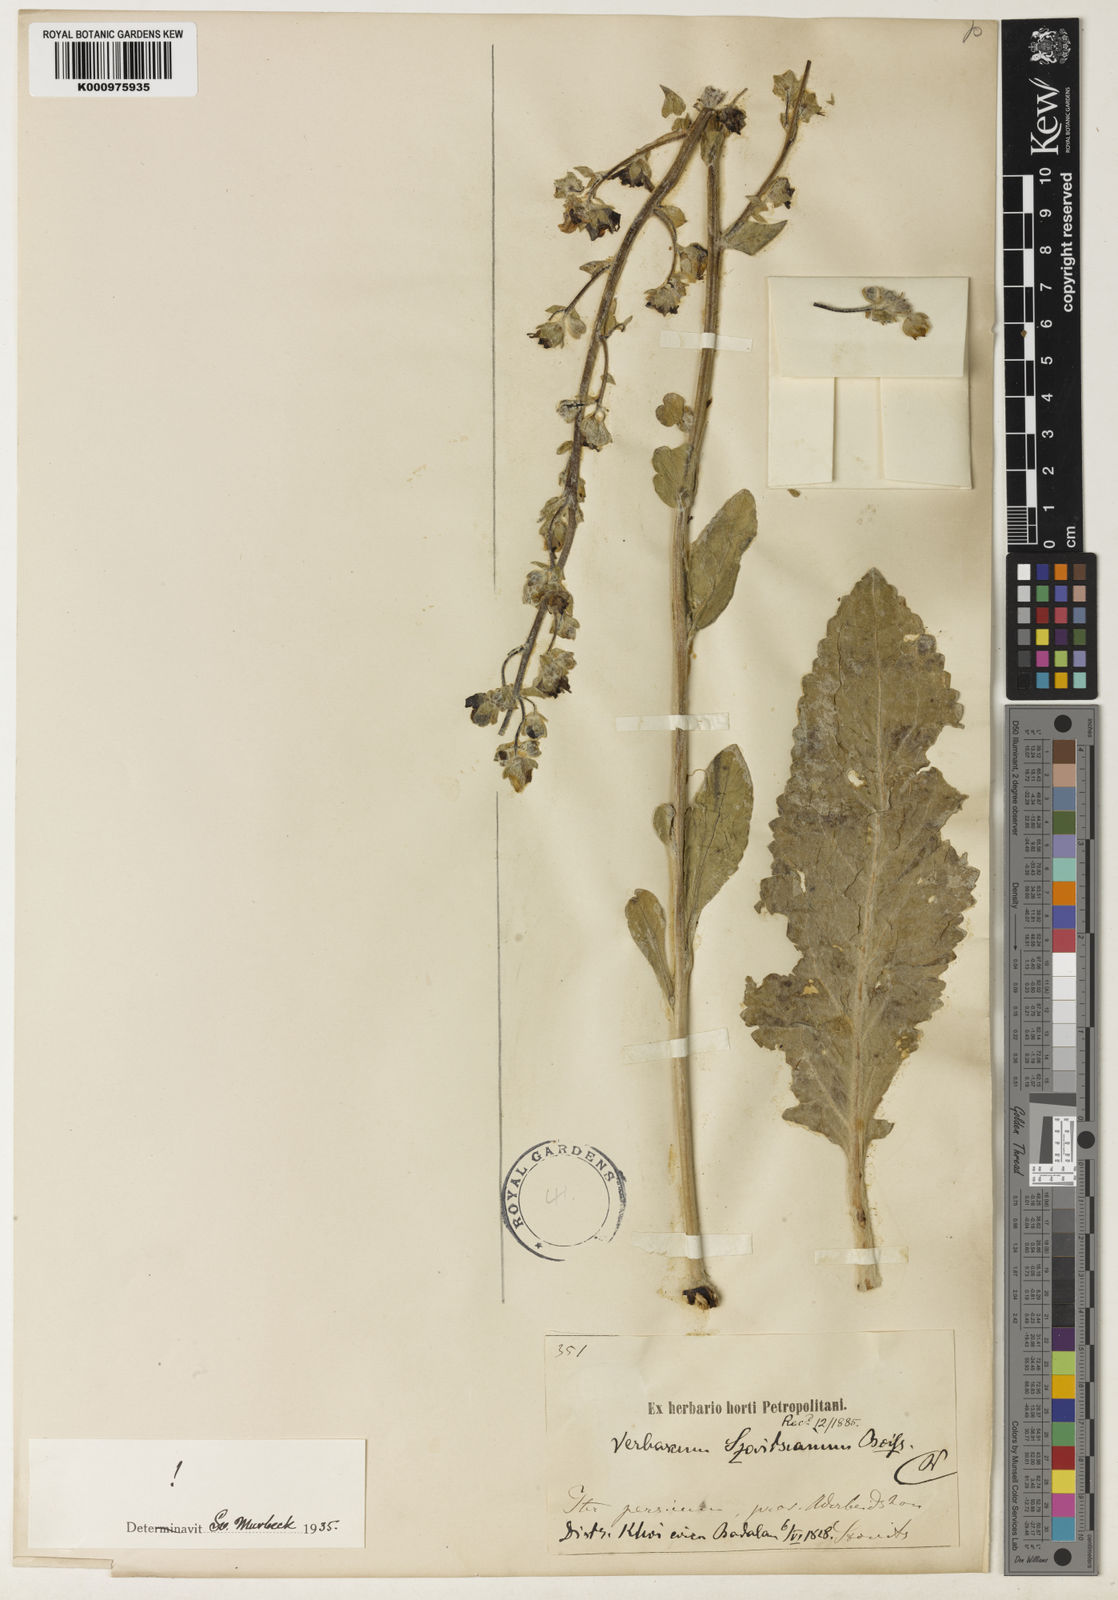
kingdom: Plantae
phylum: Tracheophyta
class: Magnoliopsida
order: Lamiales
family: Scrophulariaceae
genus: Verbascum
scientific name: Verbascum szovitsianum
